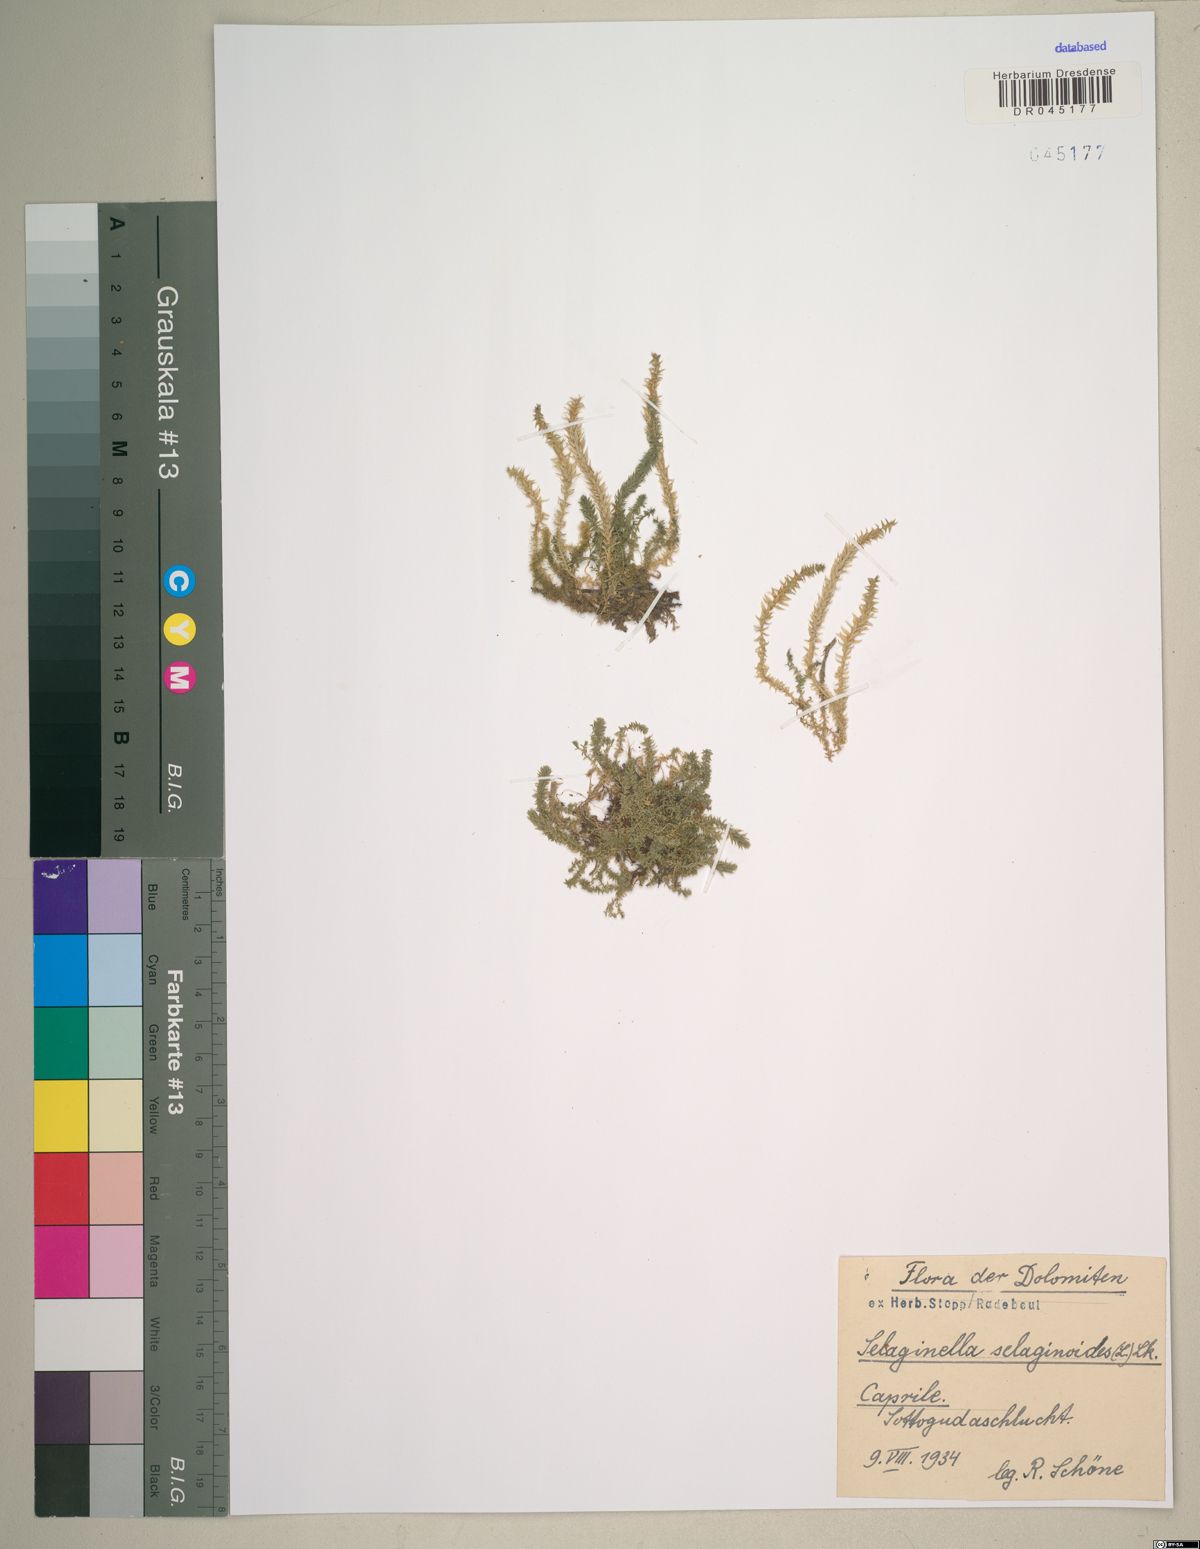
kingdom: Plantae
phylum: Tracheophyta
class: Lycopodiopsida
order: Selaginellales
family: Selaginellaceae
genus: Selaginella
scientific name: Selaginella selaginoides
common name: Prickly mountain-moss
